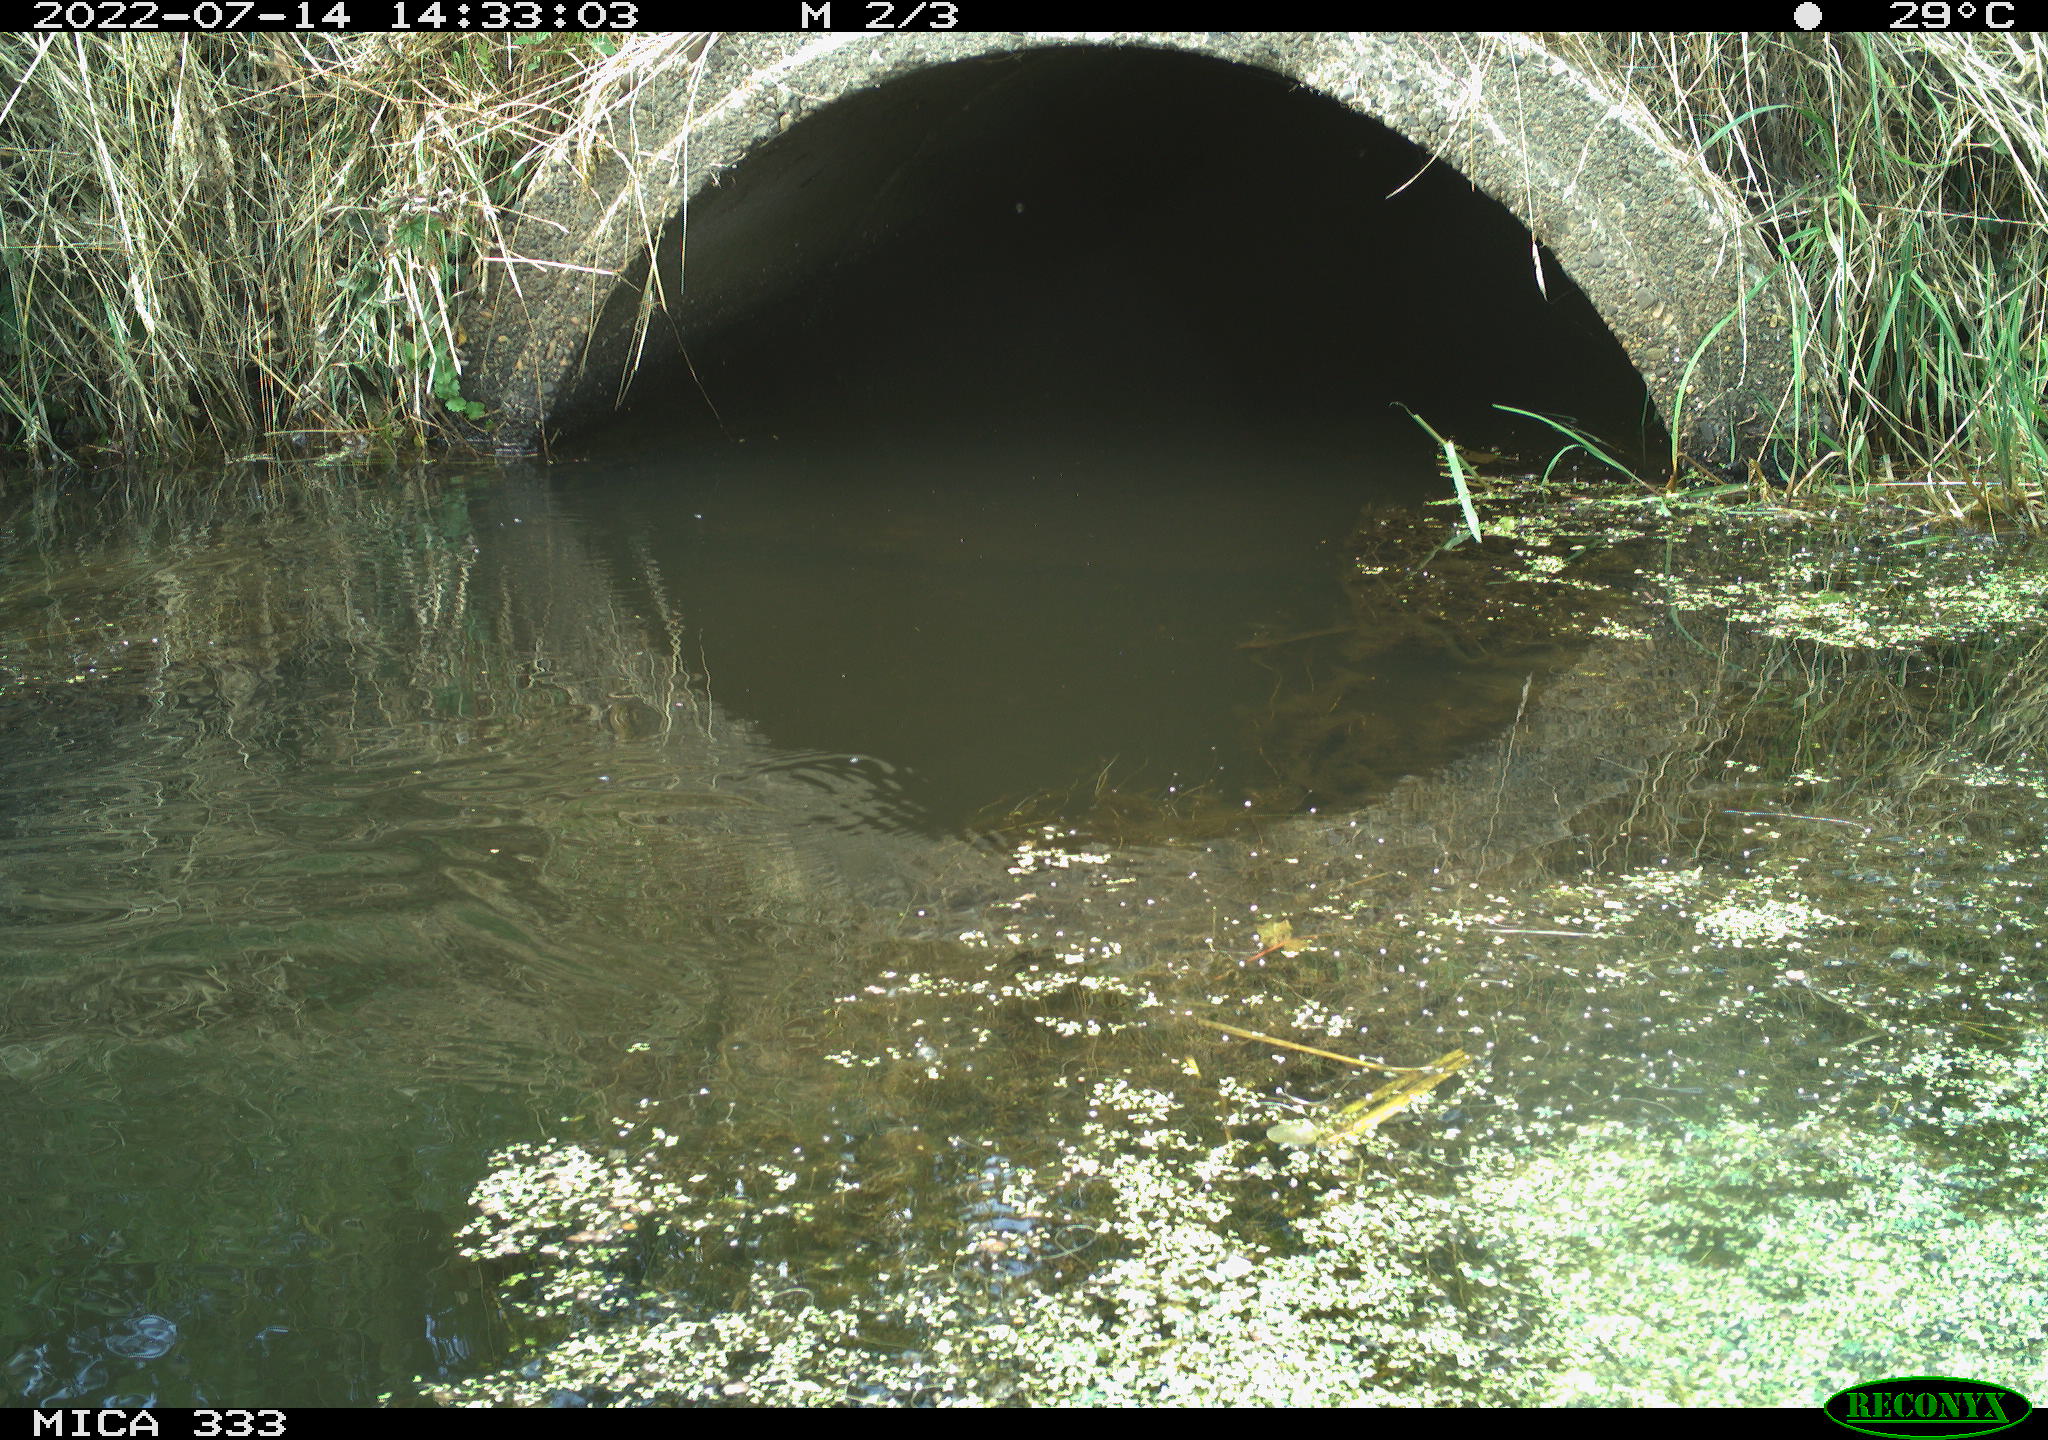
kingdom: Animalia
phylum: Chordata
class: Aves
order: Gruiformes
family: Rallidae
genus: Gallinula
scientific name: Gallinula chloropus
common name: Common moorhen
